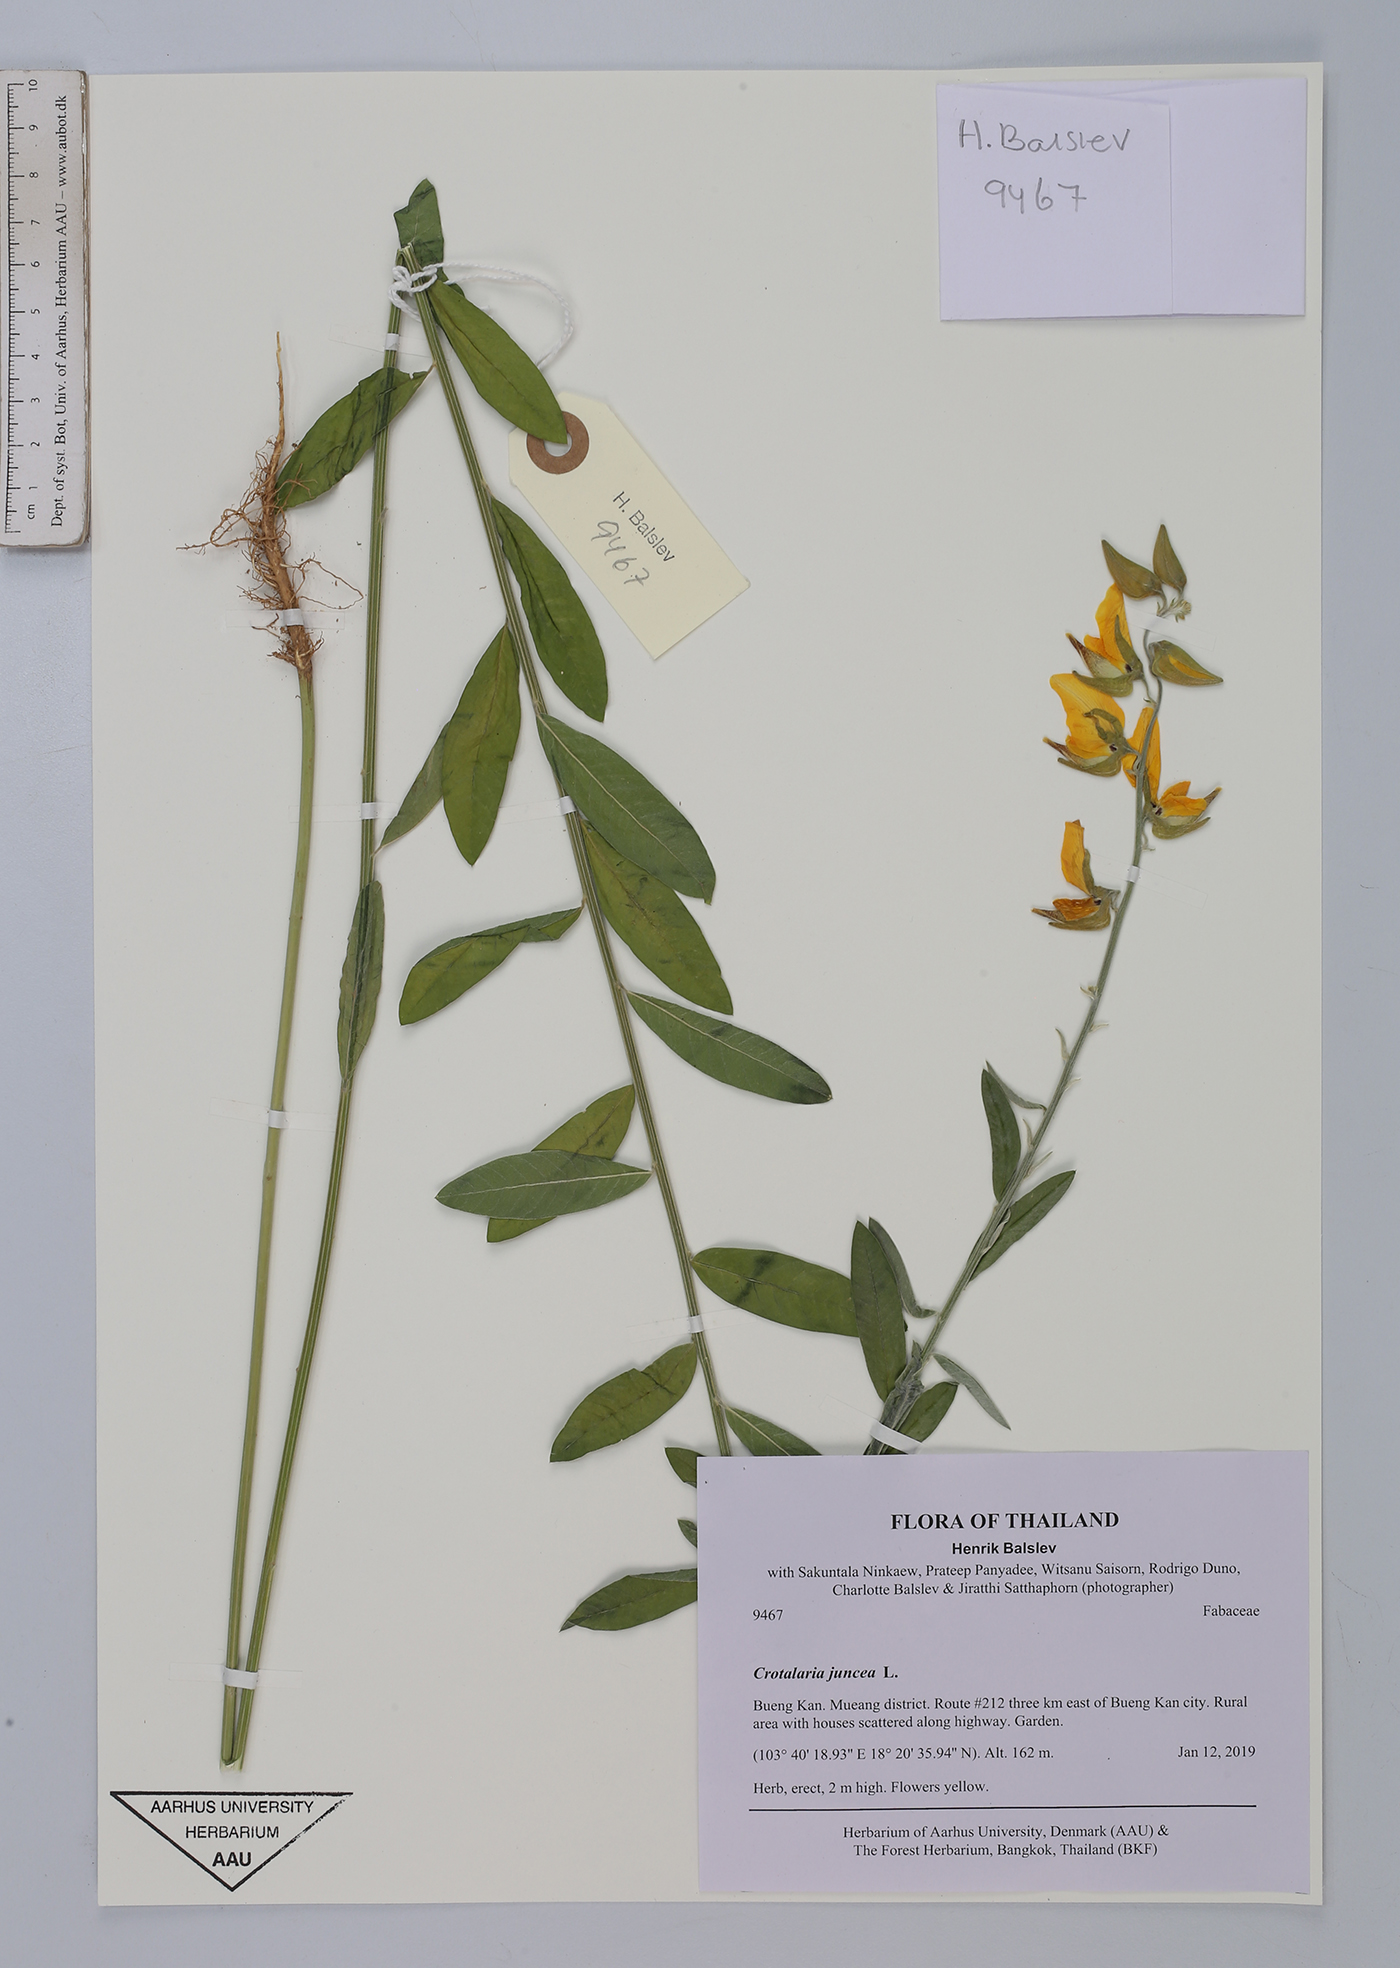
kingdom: Plantae
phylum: Tracheophyta
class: Magnoliopsida
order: Fabales
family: Fabaceae
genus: Crotalaria
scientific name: Crotalaria juncea
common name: Sunn hemp
